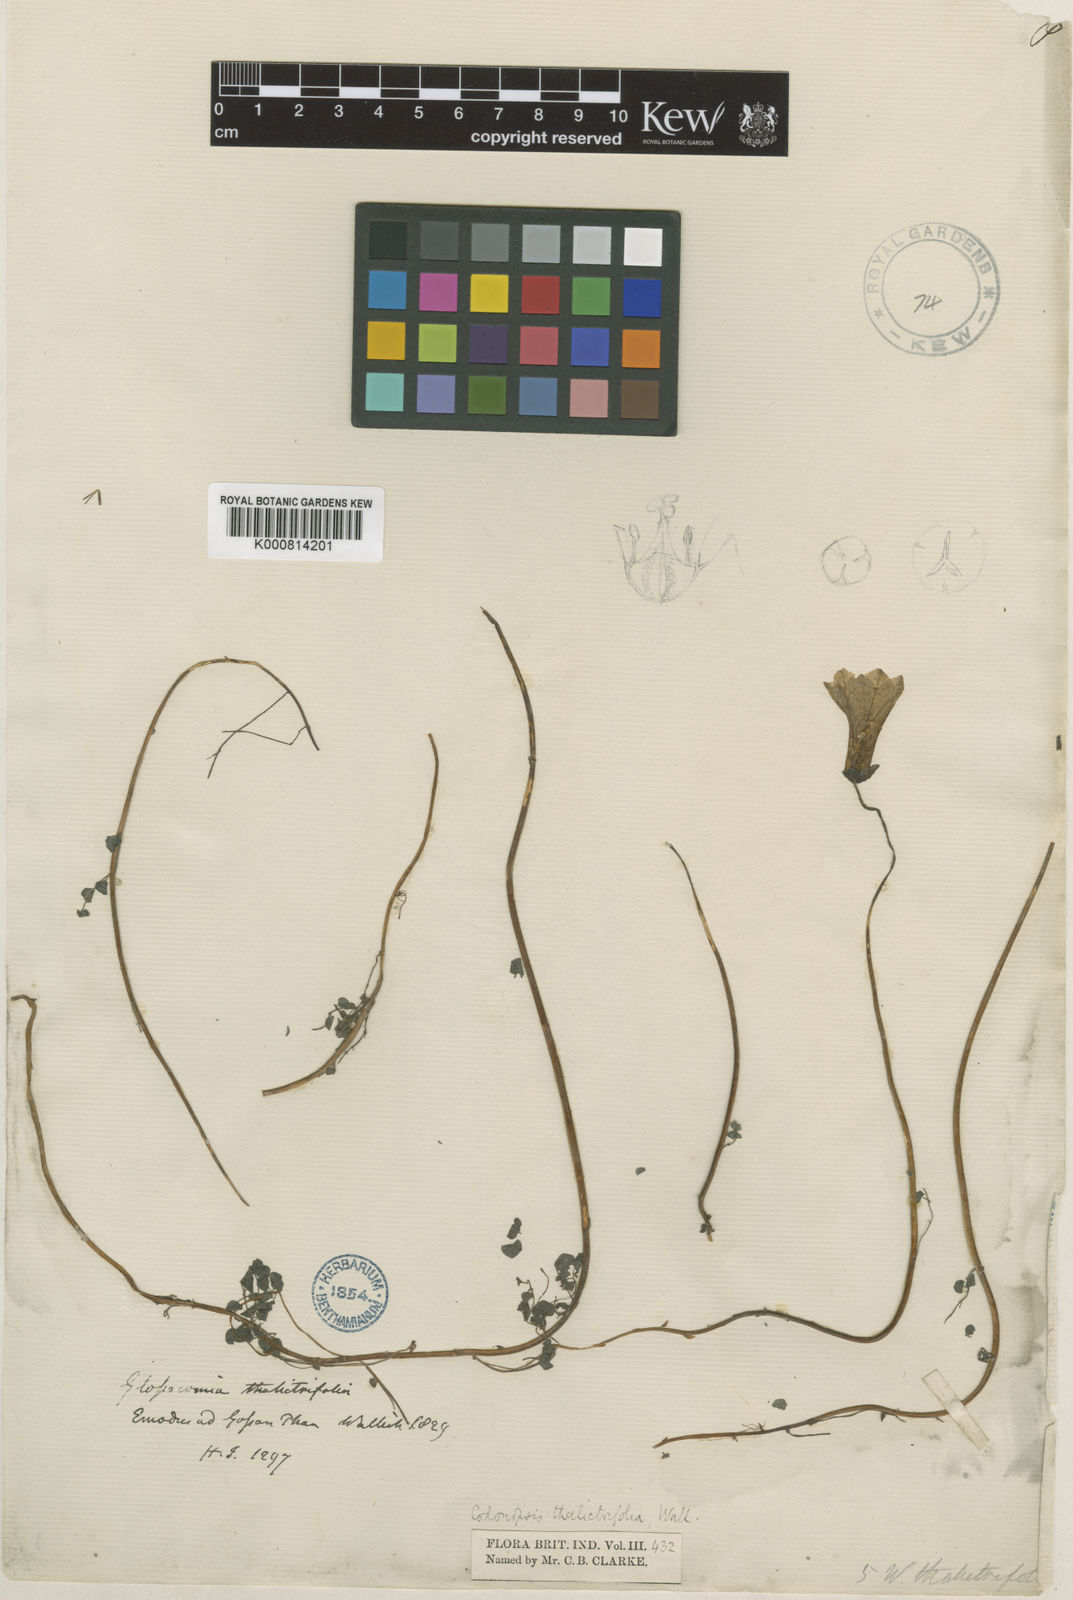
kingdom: Plantae
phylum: Tracheophyta
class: Magnoliopsida
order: Asterales
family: Campanulaceae
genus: Codonopsis
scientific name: Codonopsis thalictrifolia
